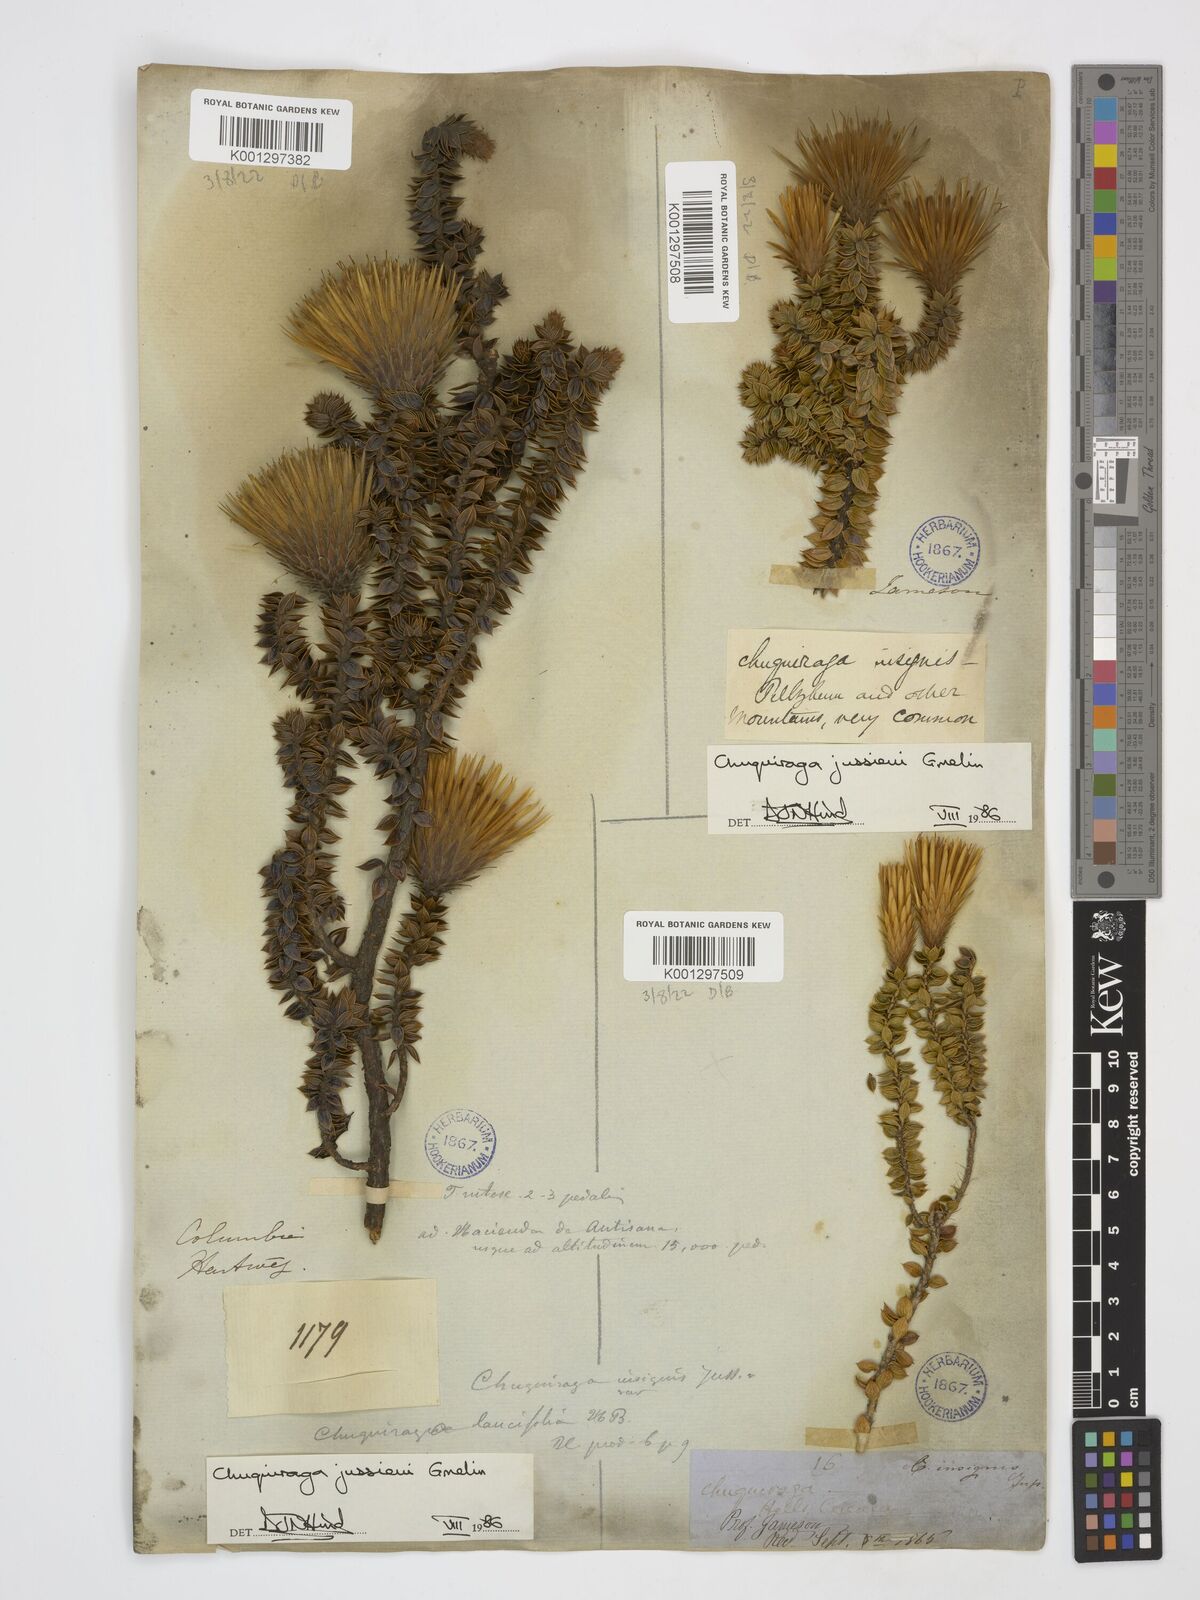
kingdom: Plantae
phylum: Tracheophyta
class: Magnoliopsida
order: Asterales
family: Asteraceae
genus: Chuquiraga
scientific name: Chuquiraga jussieui
